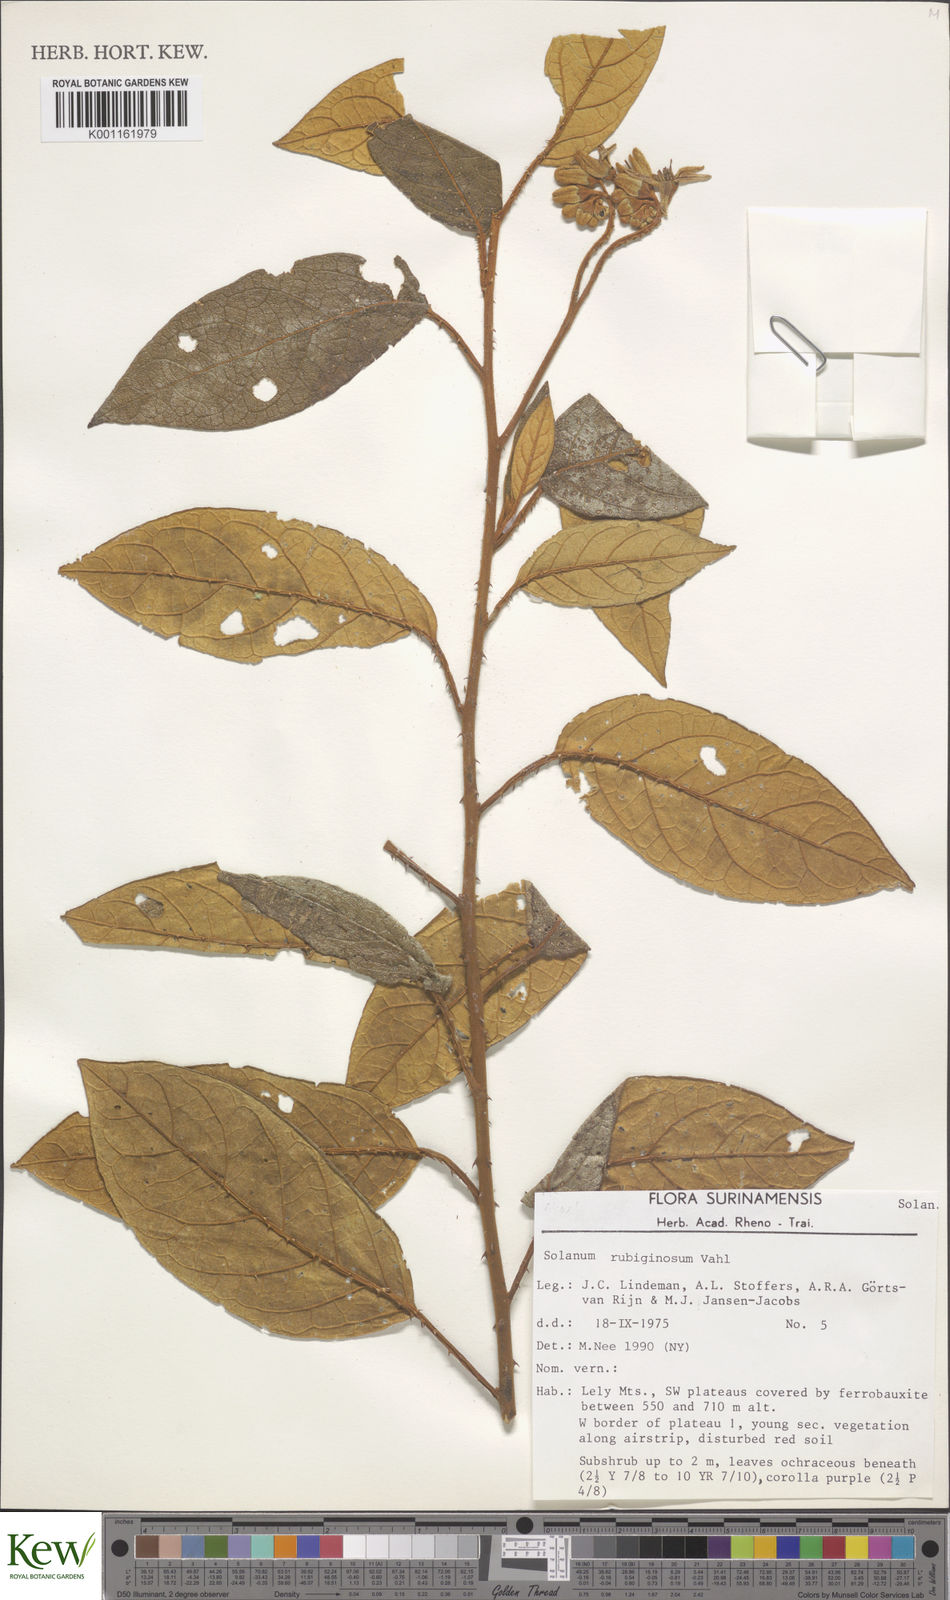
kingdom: Plantae
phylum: Tracheophyta
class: Magnoliopsida
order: Solanales
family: Solanaceae
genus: Solanum
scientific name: Solanum rubiginosum
